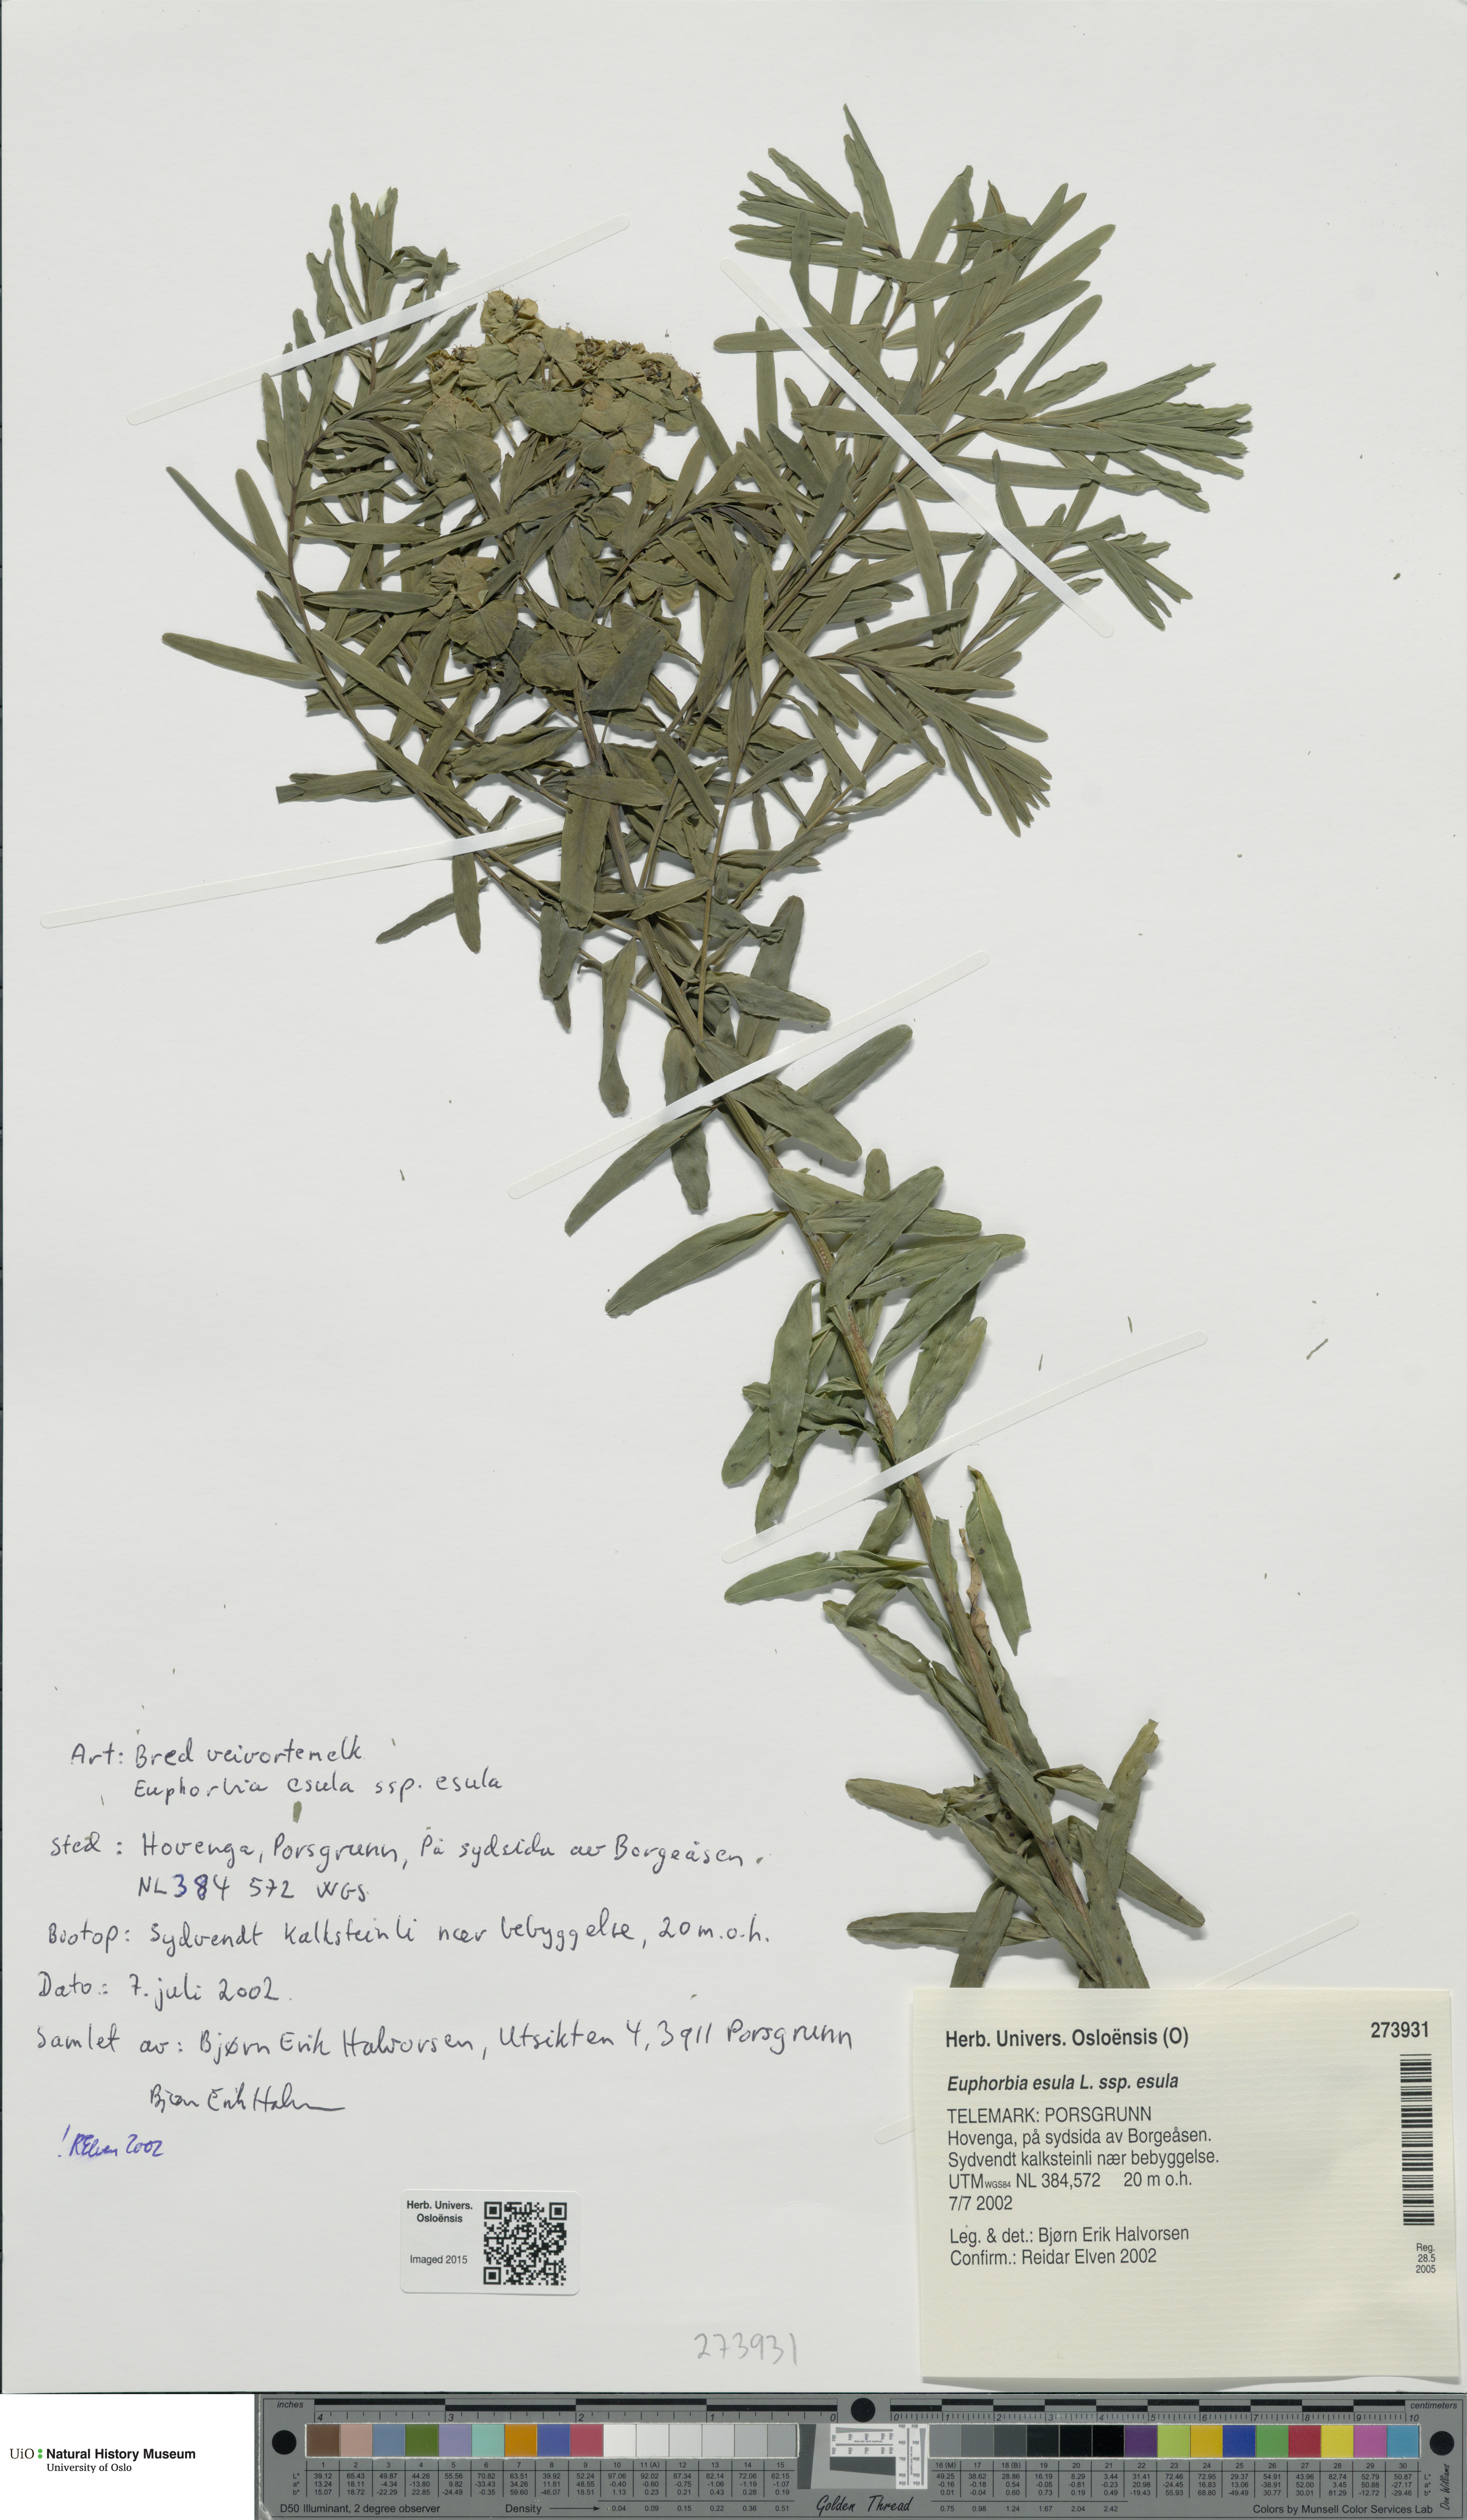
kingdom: Plantae
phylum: Tracheophyta
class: Magnoliopsida
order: Malpighiales
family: Euphorbiaceae
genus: Euphorbia
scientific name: Euphorbia esula
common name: Leafy spurge
